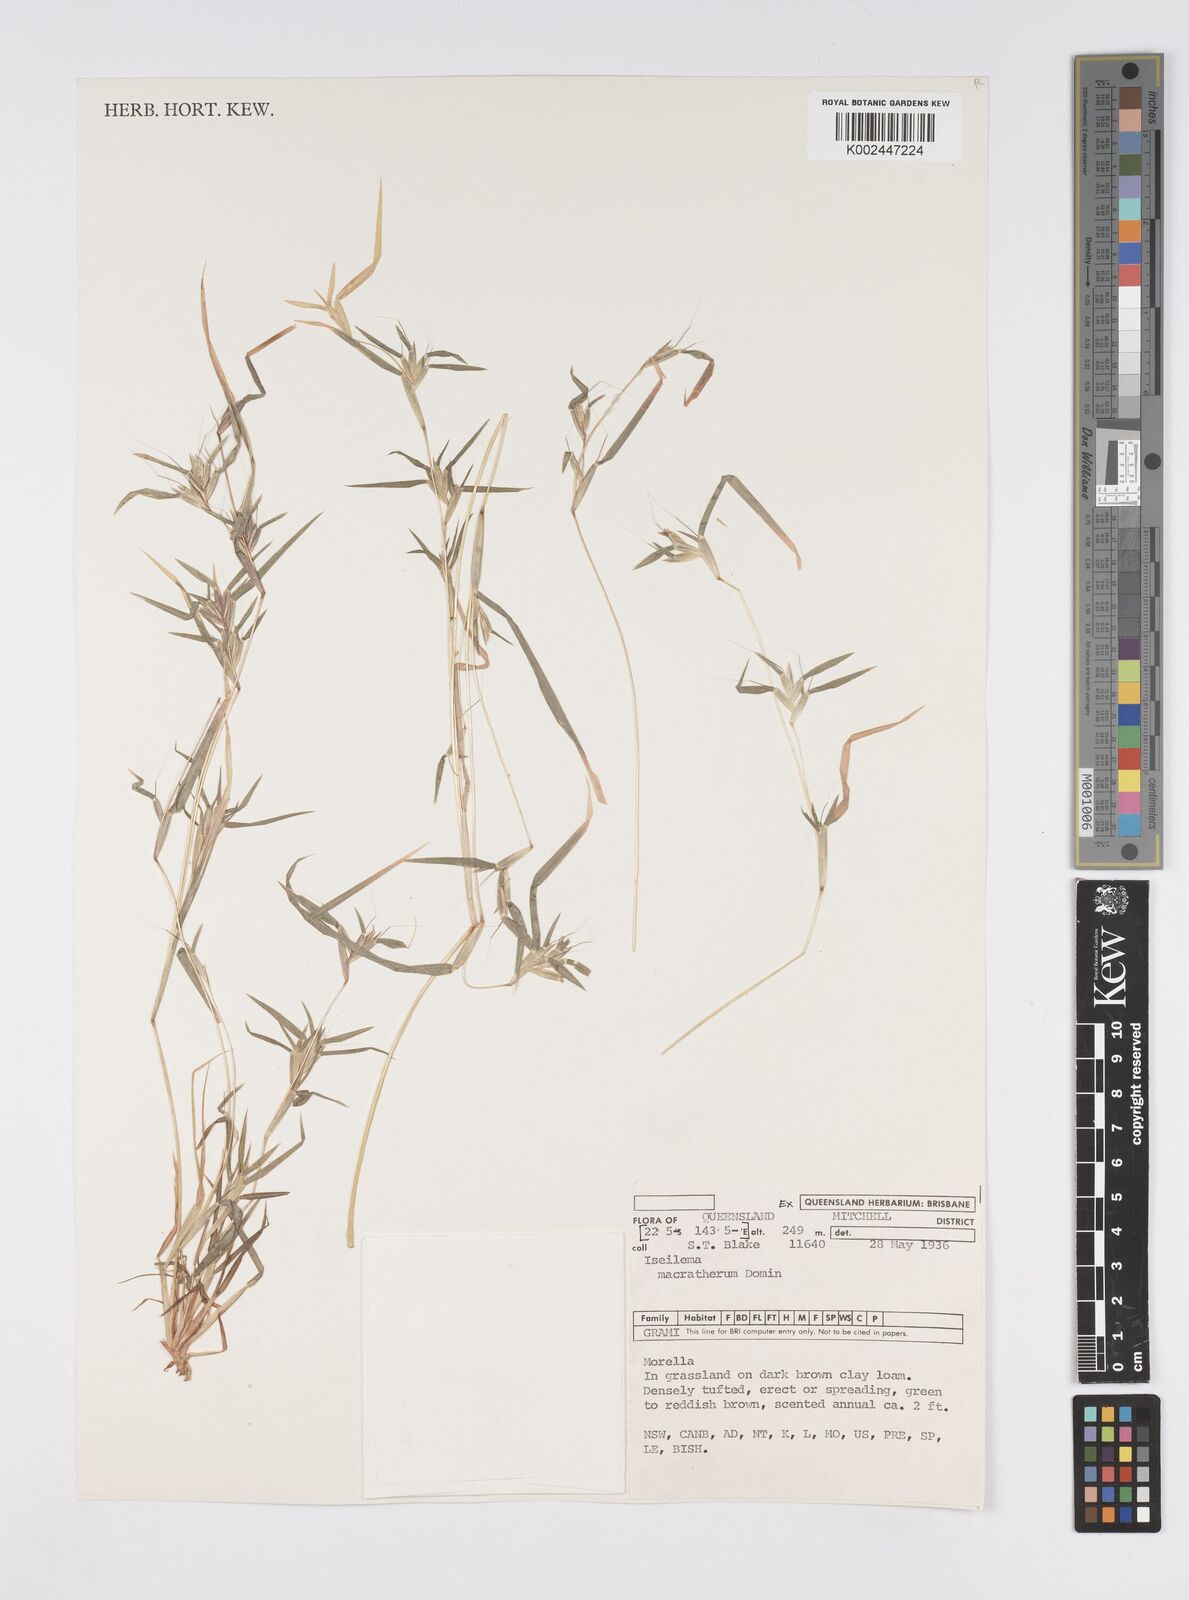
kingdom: Plantae
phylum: Tracheophyta
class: Liliopsida
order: Poales
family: Poaceae
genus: Iseilema
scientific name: Iseilema macratherum
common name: Bull flinders grass
